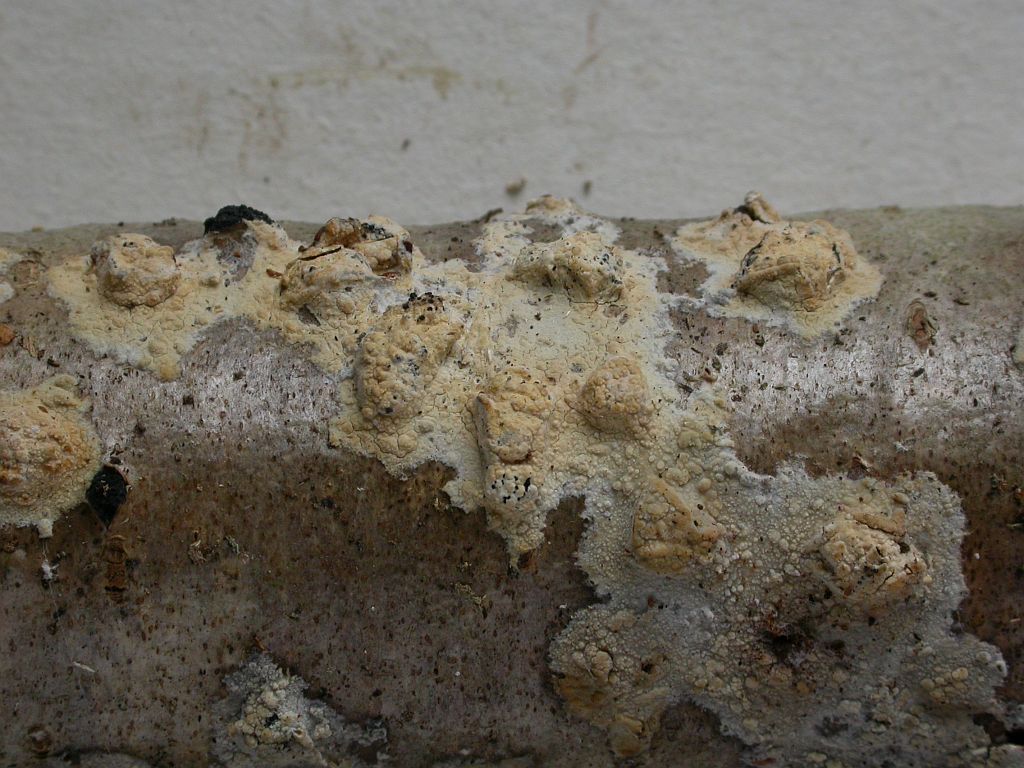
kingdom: Fungi
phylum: Basidiomycota
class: Agaricomycetes
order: Polyporales
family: Hyphodermataceae
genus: Hyphoderma
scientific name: Hyphoderma setigerum
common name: håret kalkskind
